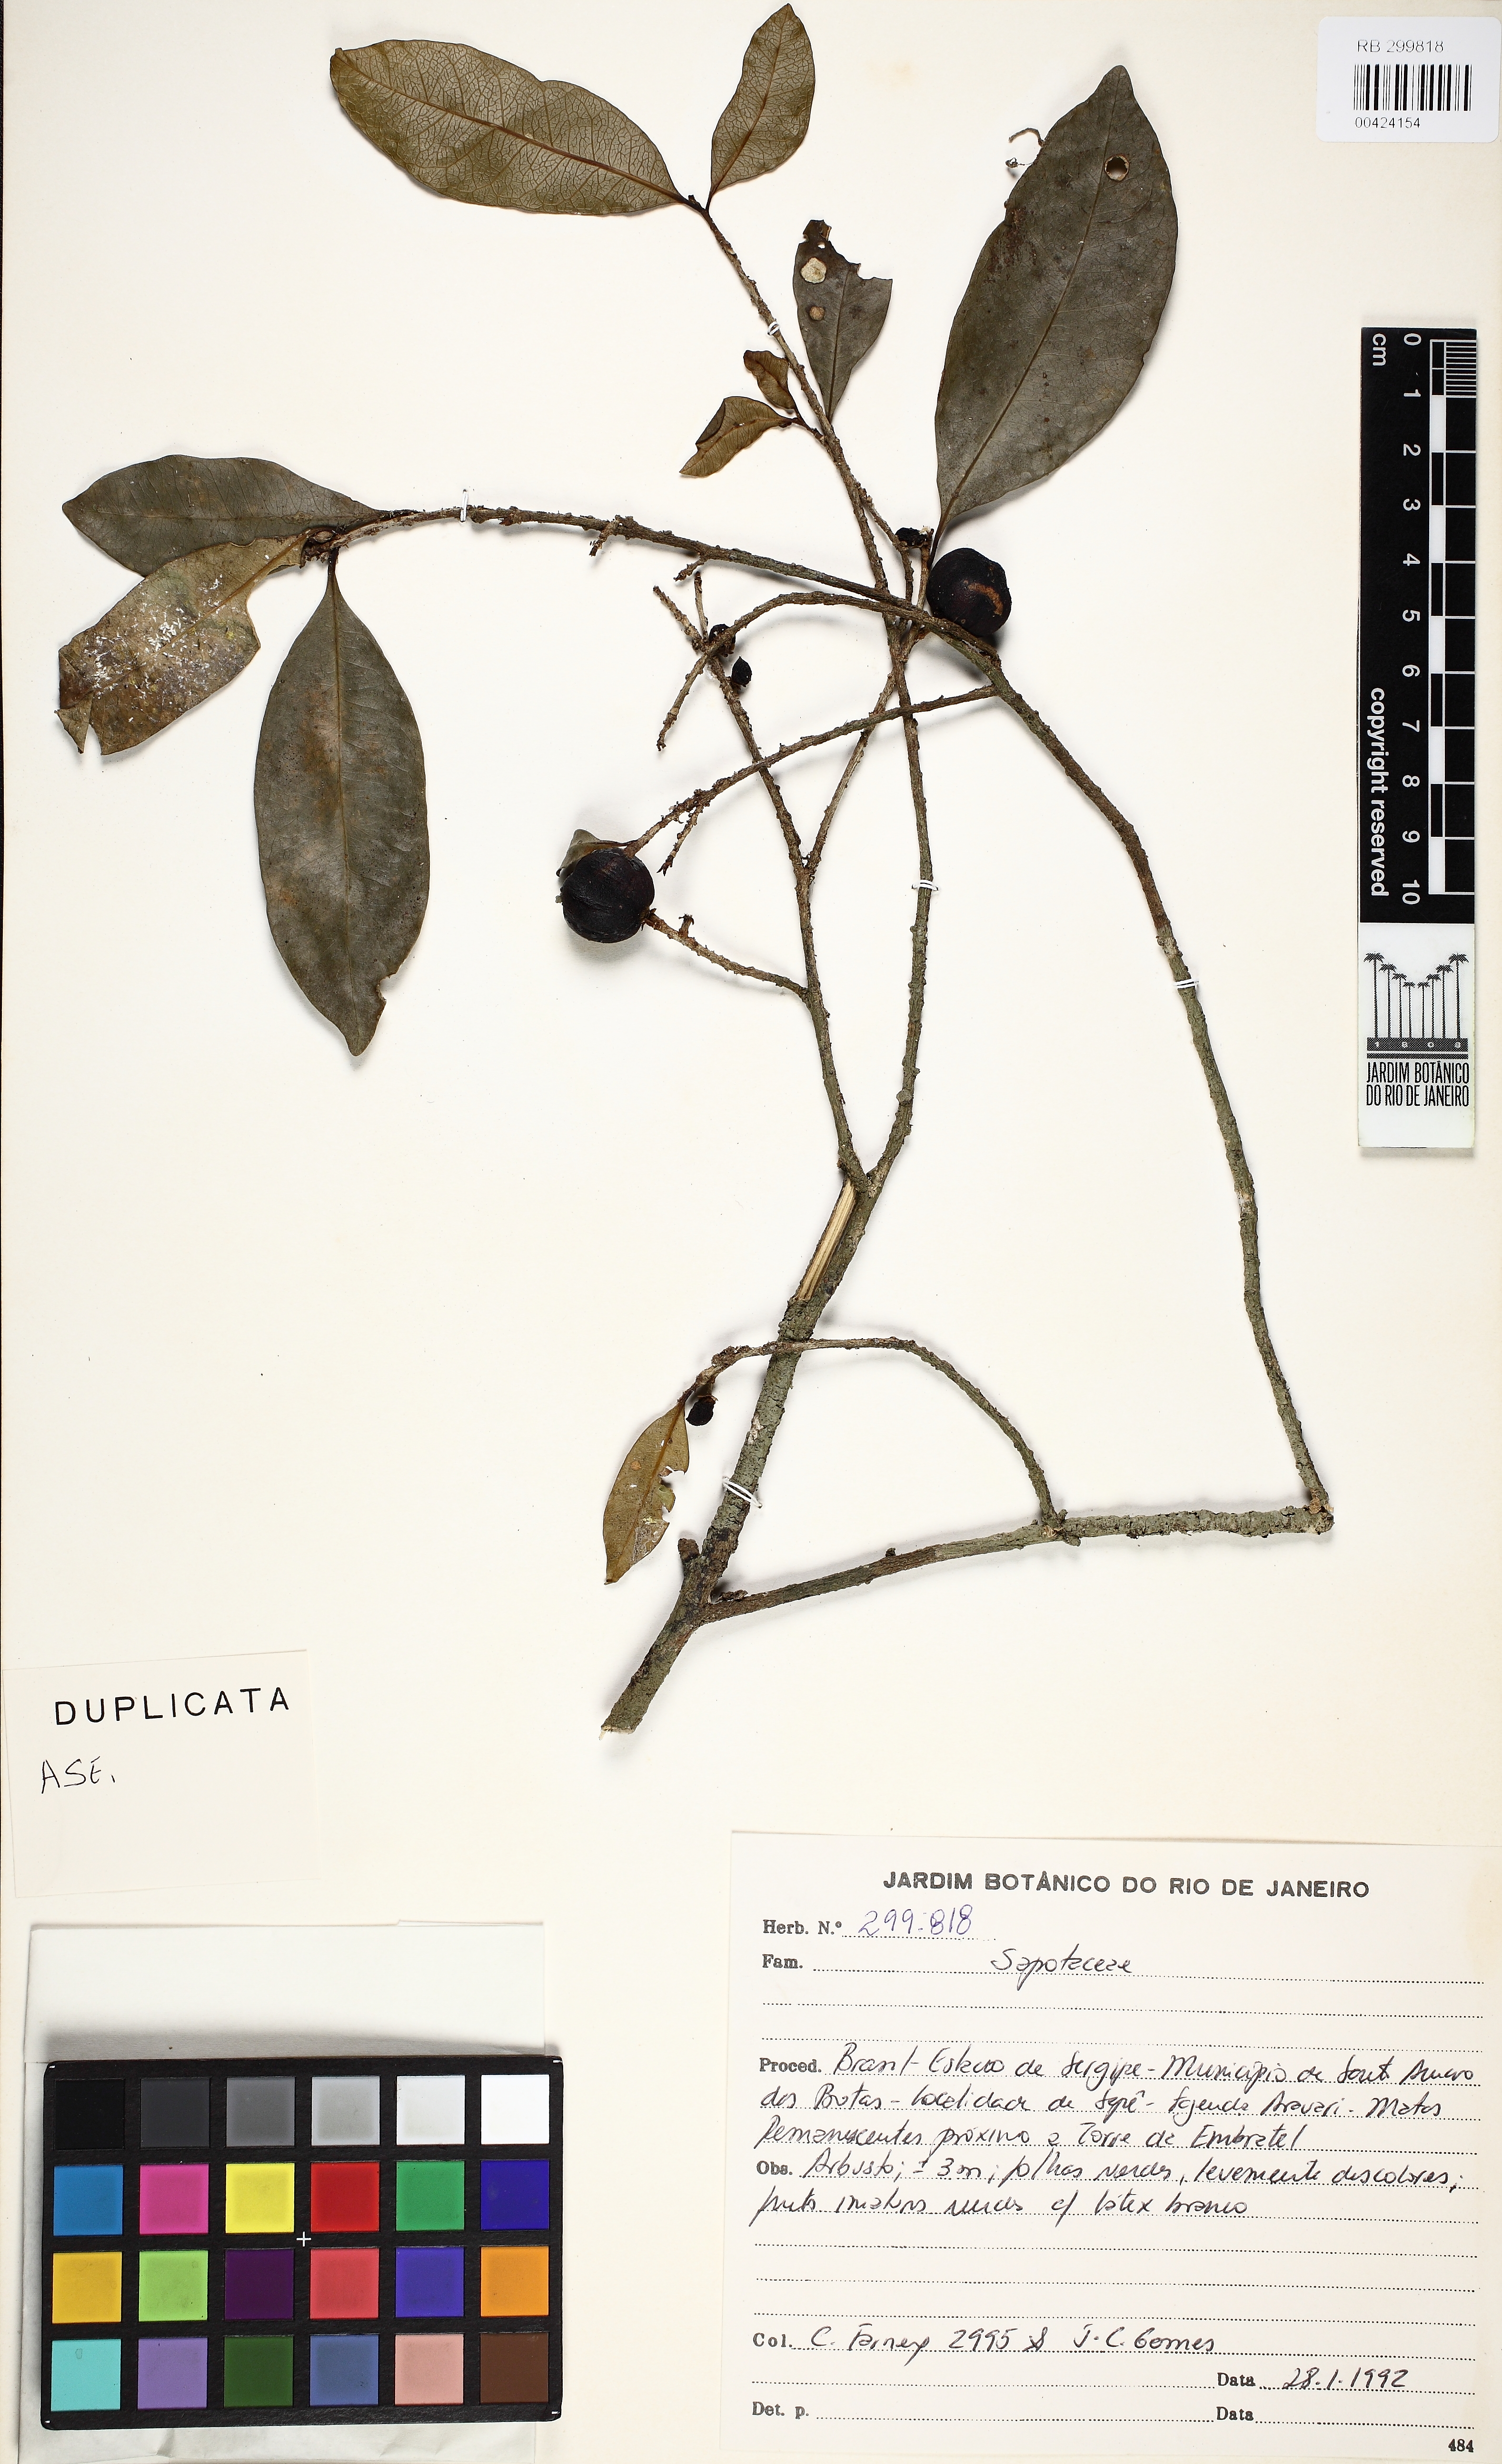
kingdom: Plantae
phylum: Tracheophyta
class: Magnoliopsida
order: Ericales
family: Sapotaceae
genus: Chrysophyllum
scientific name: Chrysophyllum gonocarpum
